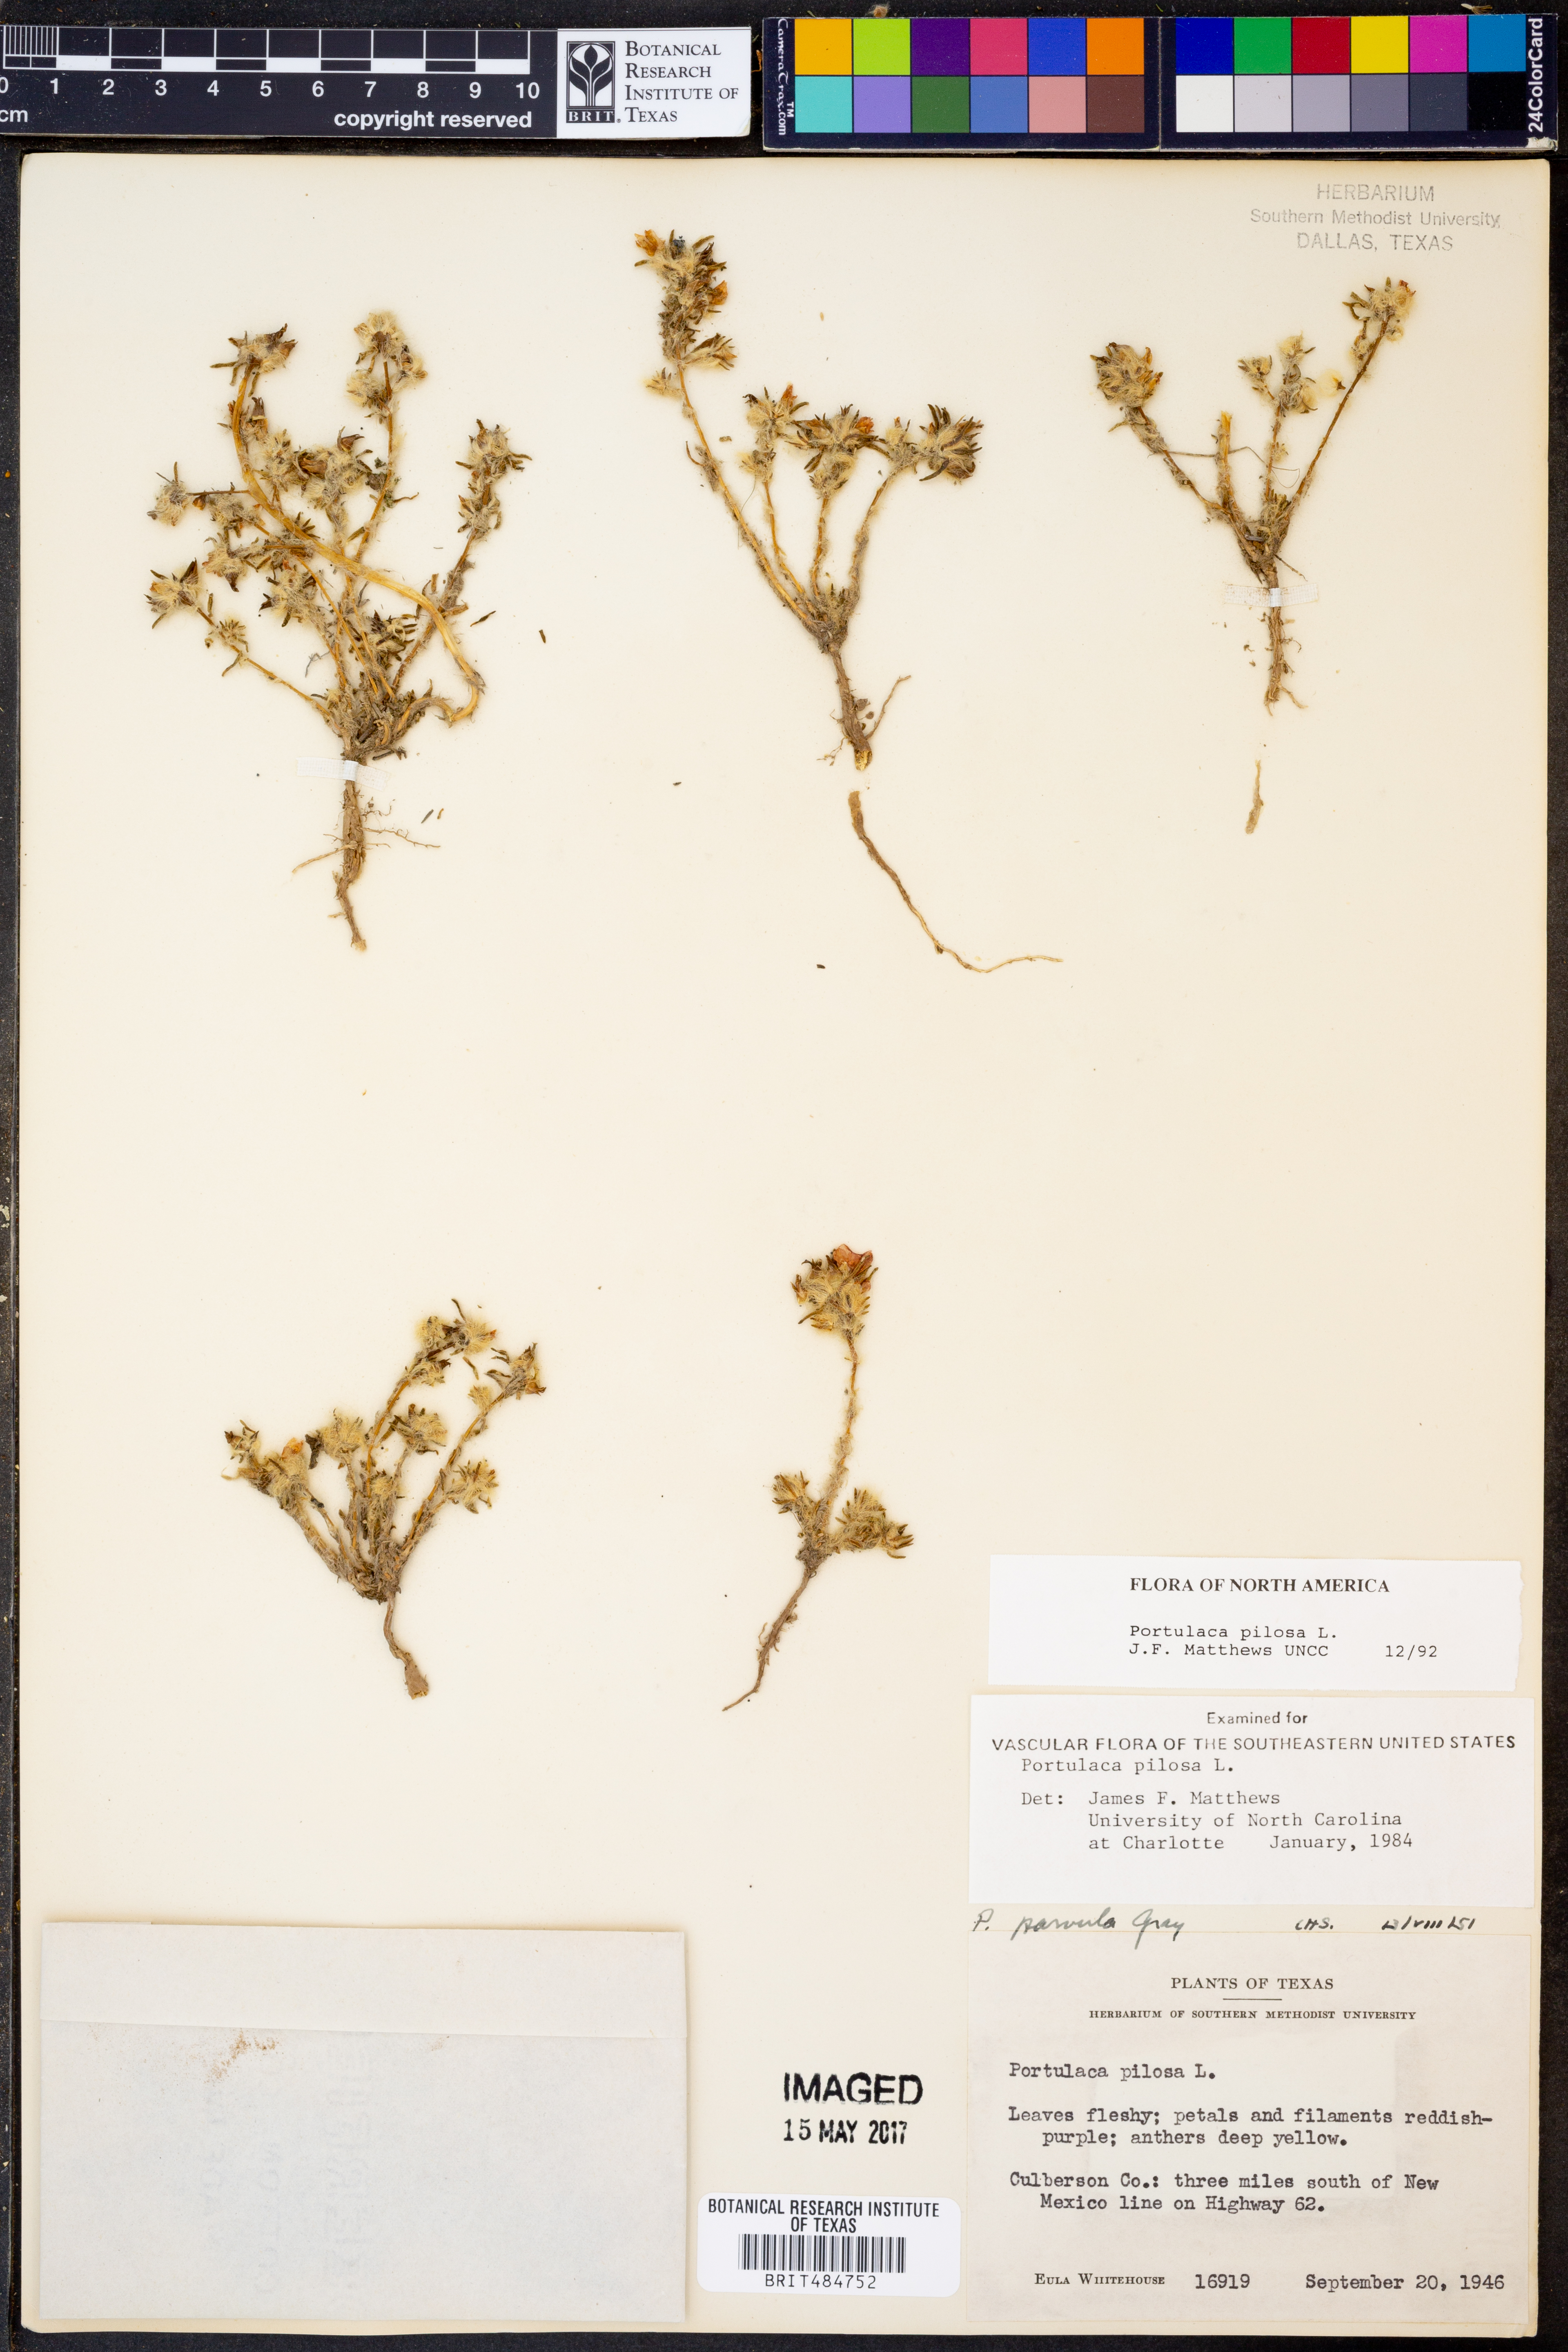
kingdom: Plantae
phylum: Tracheophyta
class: Magnoliopsida
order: Caryophyllales
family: Portulacaceae
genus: Portulaca
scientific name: Portulaca pilosa
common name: Kiss me quick
